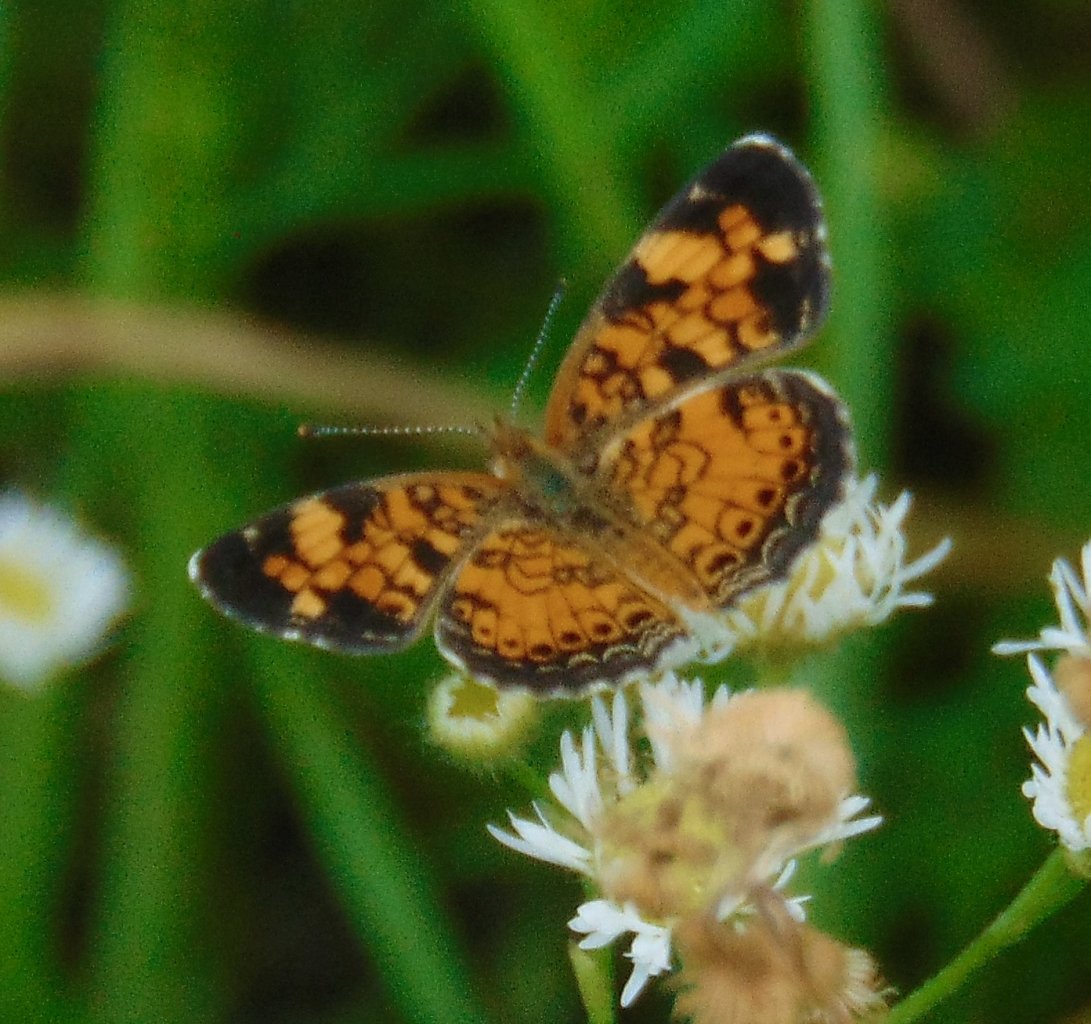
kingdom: Animalia
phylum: Arthropoda
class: Insecta
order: Lepidoptera
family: Nymphalidae
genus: Phyciodes
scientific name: Phyciodes tharos
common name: Pearl Crescent
